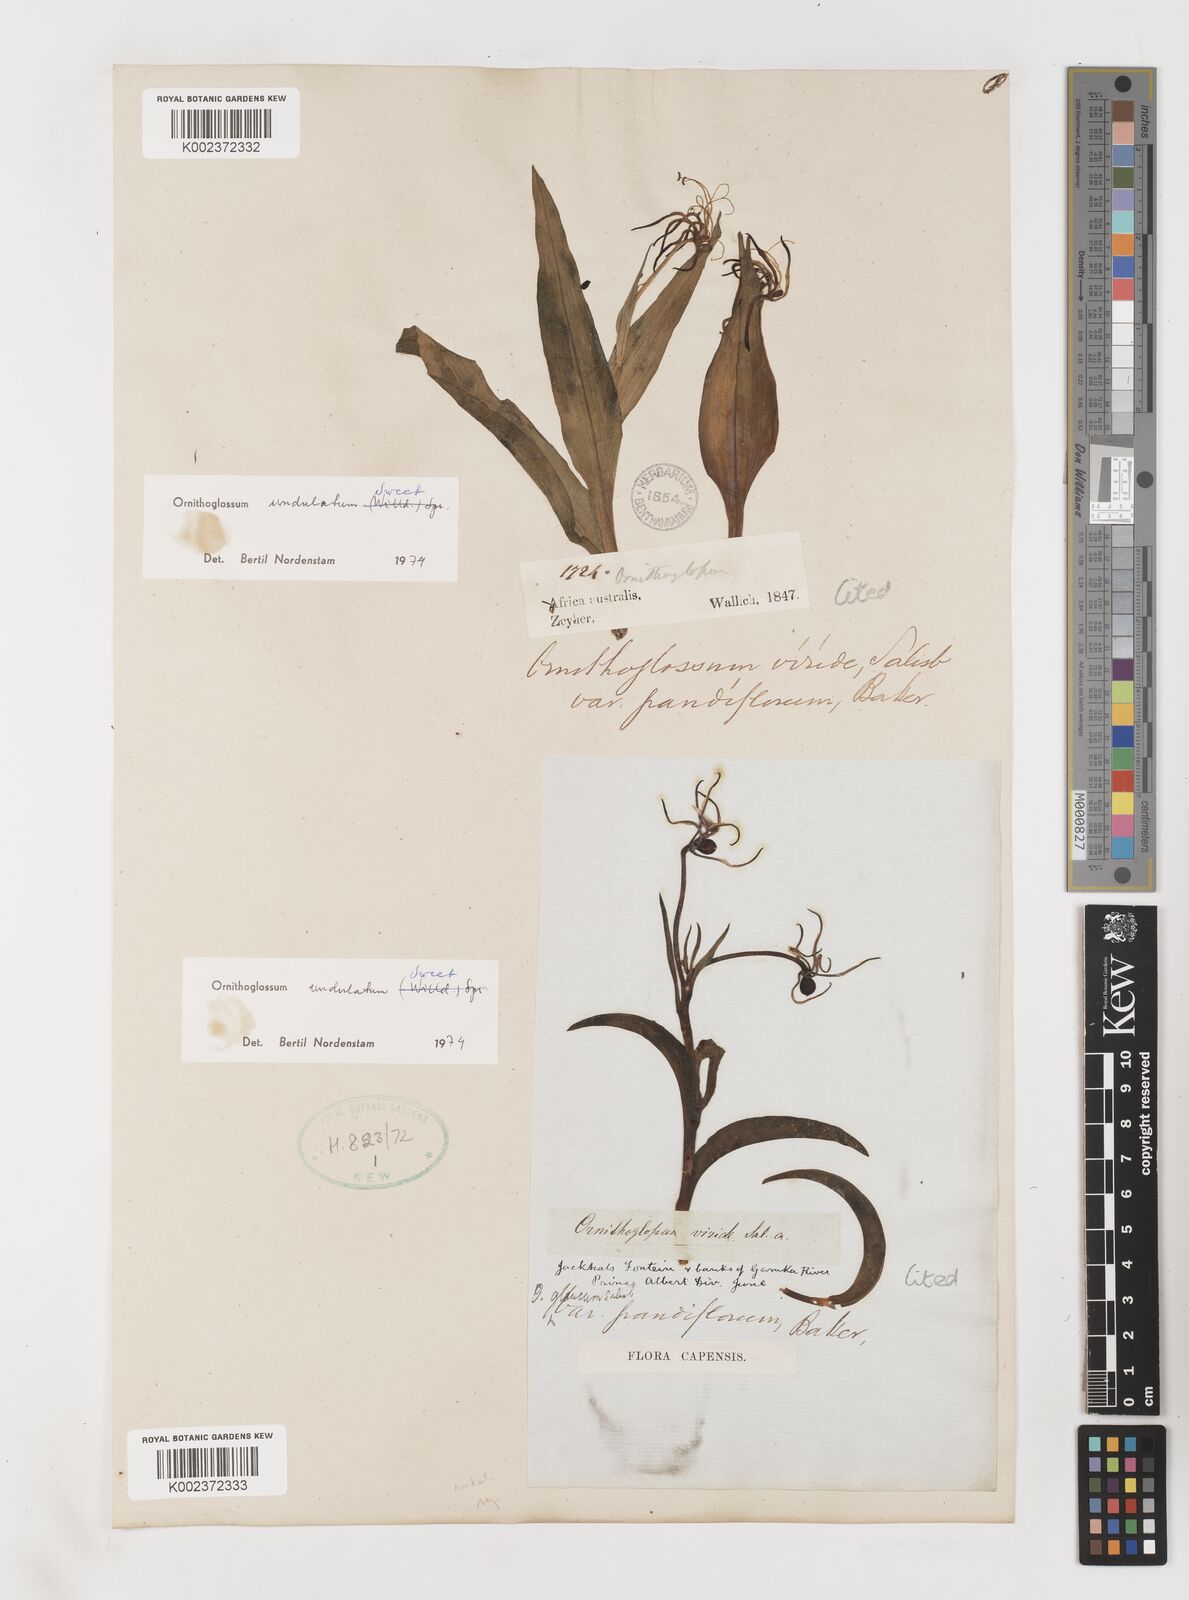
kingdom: Plantae
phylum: Tracheophyta
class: Liliopsida
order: Liliales
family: Colchicaceae
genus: Ornithoglossum
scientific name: Ornithoglossum undulatum
